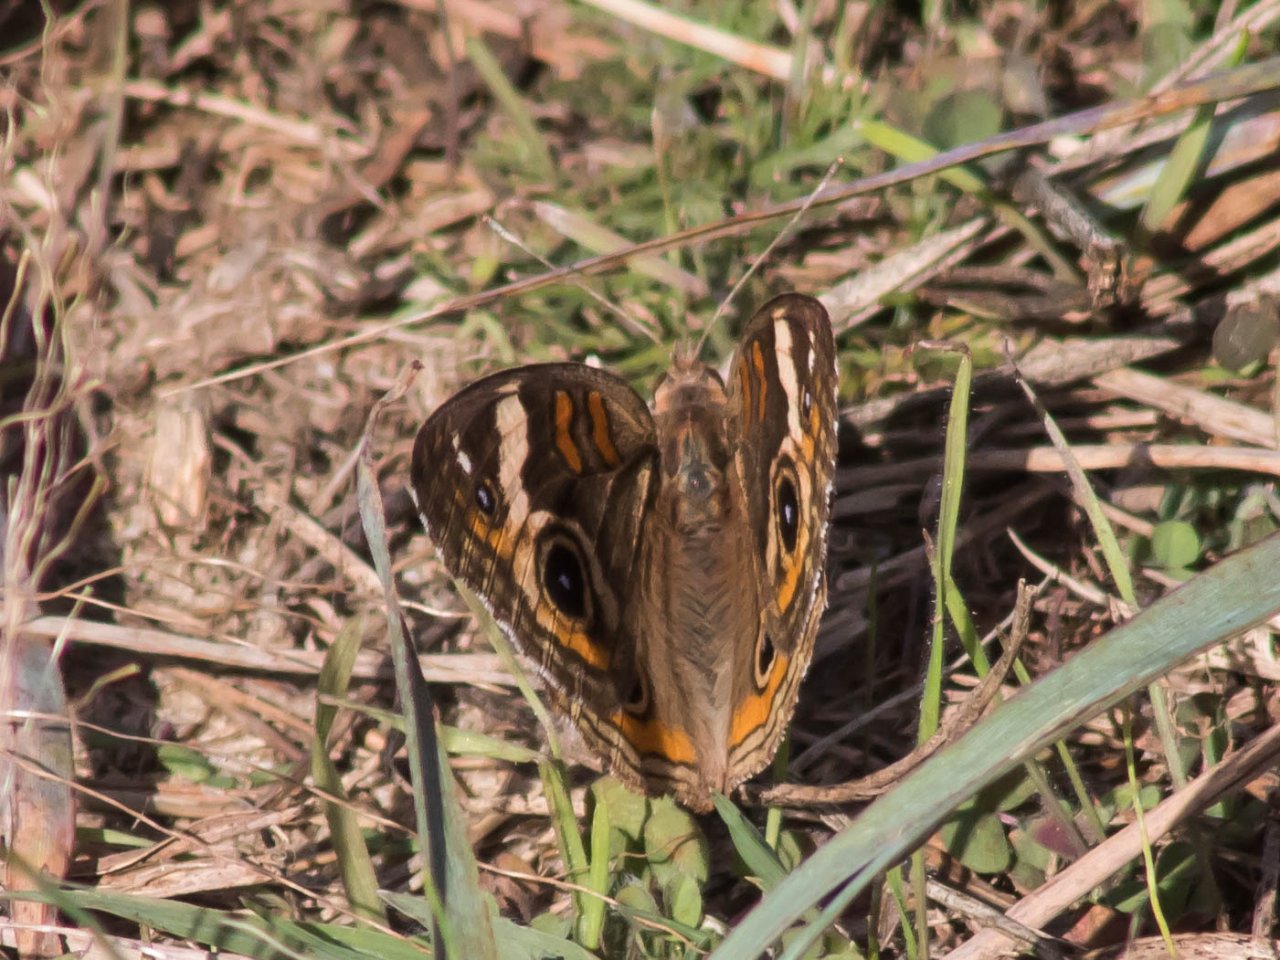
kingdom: Animalia
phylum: Arthropoda
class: Insecta
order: Lepidoptera
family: Nymphalidae
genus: Junonia
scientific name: Junonia coenia
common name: Common Buckeye
